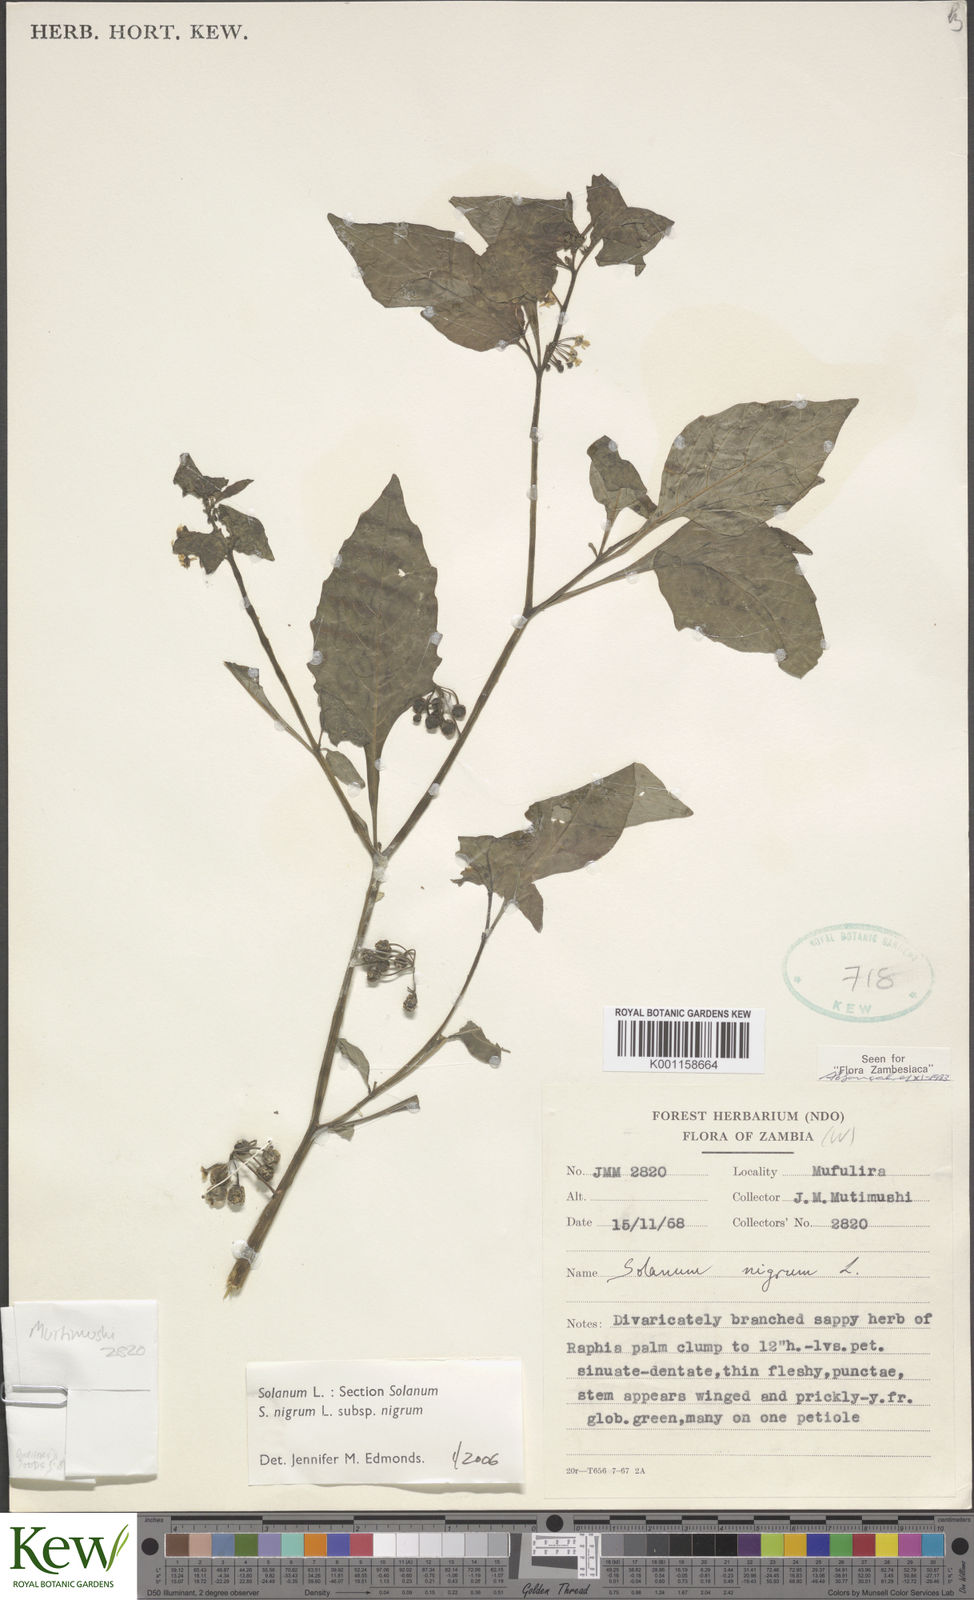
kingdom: Plantae
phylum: Tracheophyta
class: Magnoliopsida
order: Solanales
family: Solanaceae
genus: Solanum
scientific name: Solanum nigrum
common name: Black nightshade
